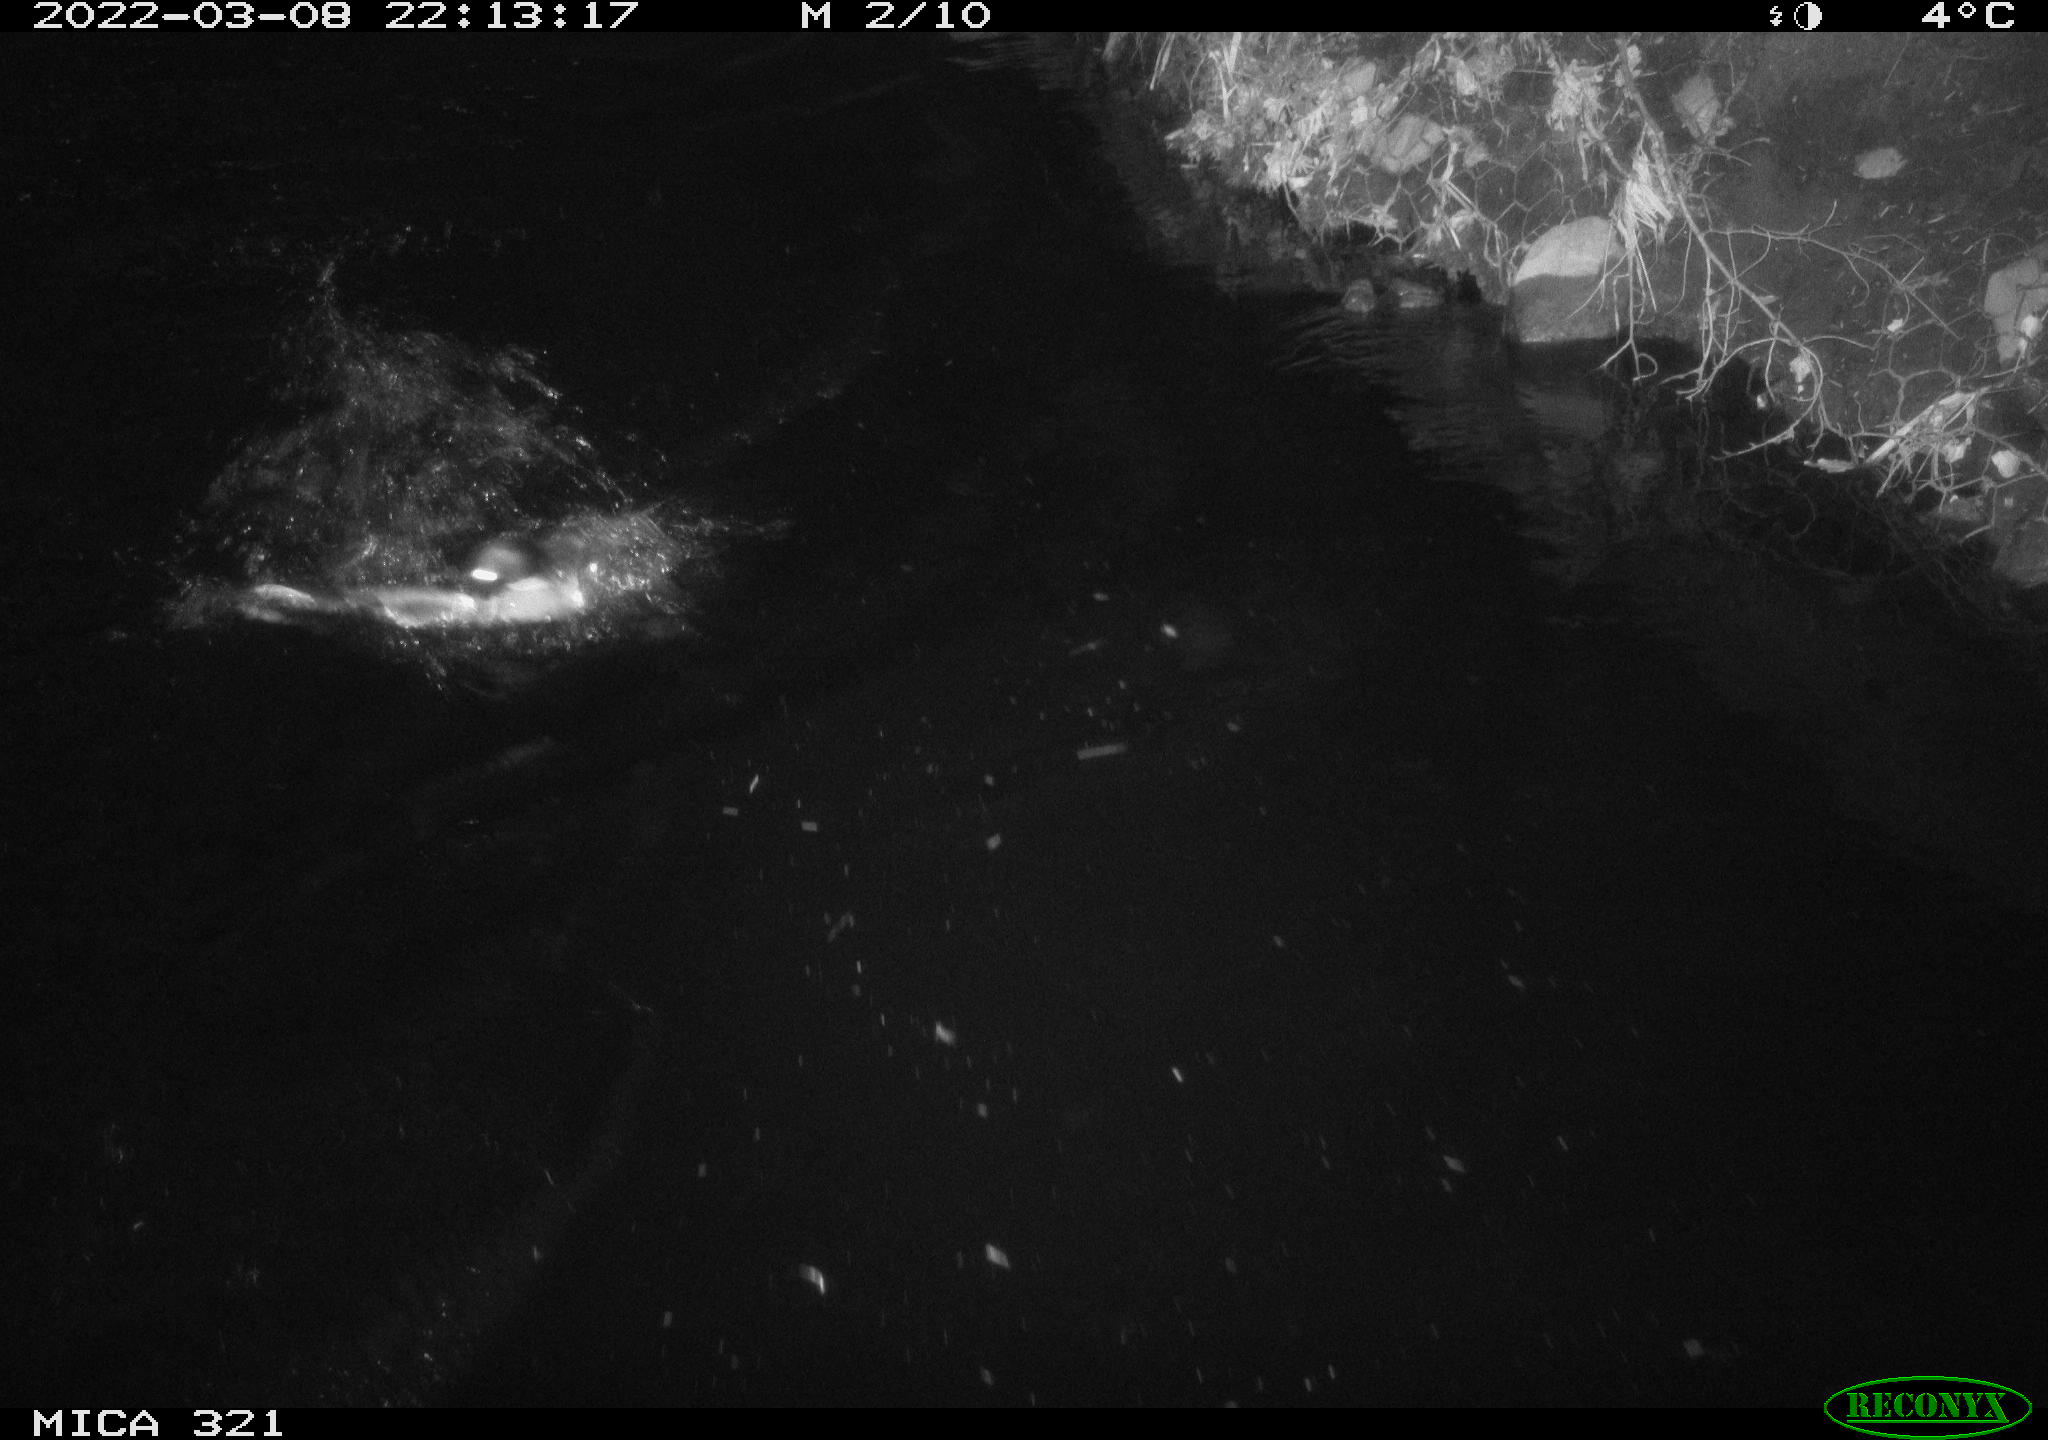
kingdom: Animalia
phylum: Chordata
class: Aves
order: Anseriformes
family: Anatidae
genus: Anas
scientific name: Anas platyrhynchos
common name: Mallard
